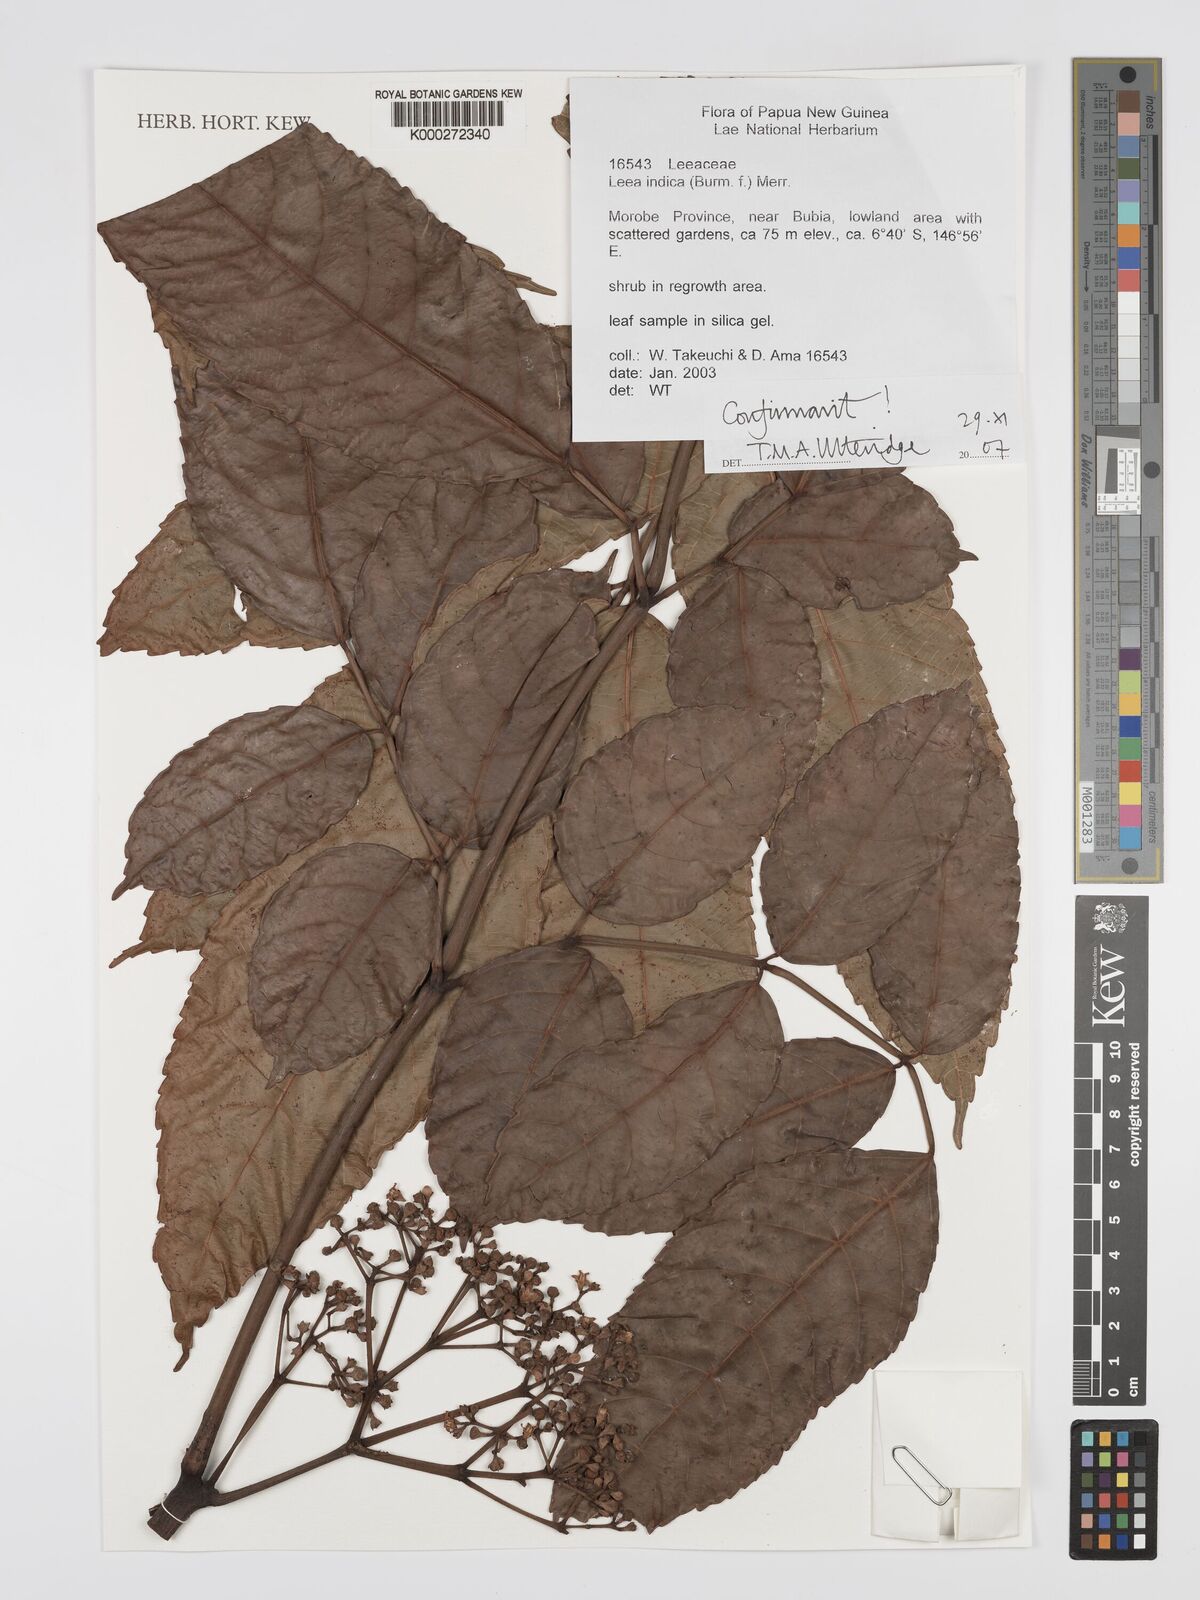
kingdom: Plantae
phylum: Tracheophyta
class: Magnoliopsida
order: Vitales
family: Vitaceae
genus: Leea
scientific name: Leea indica
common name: Bandicoot-berry
